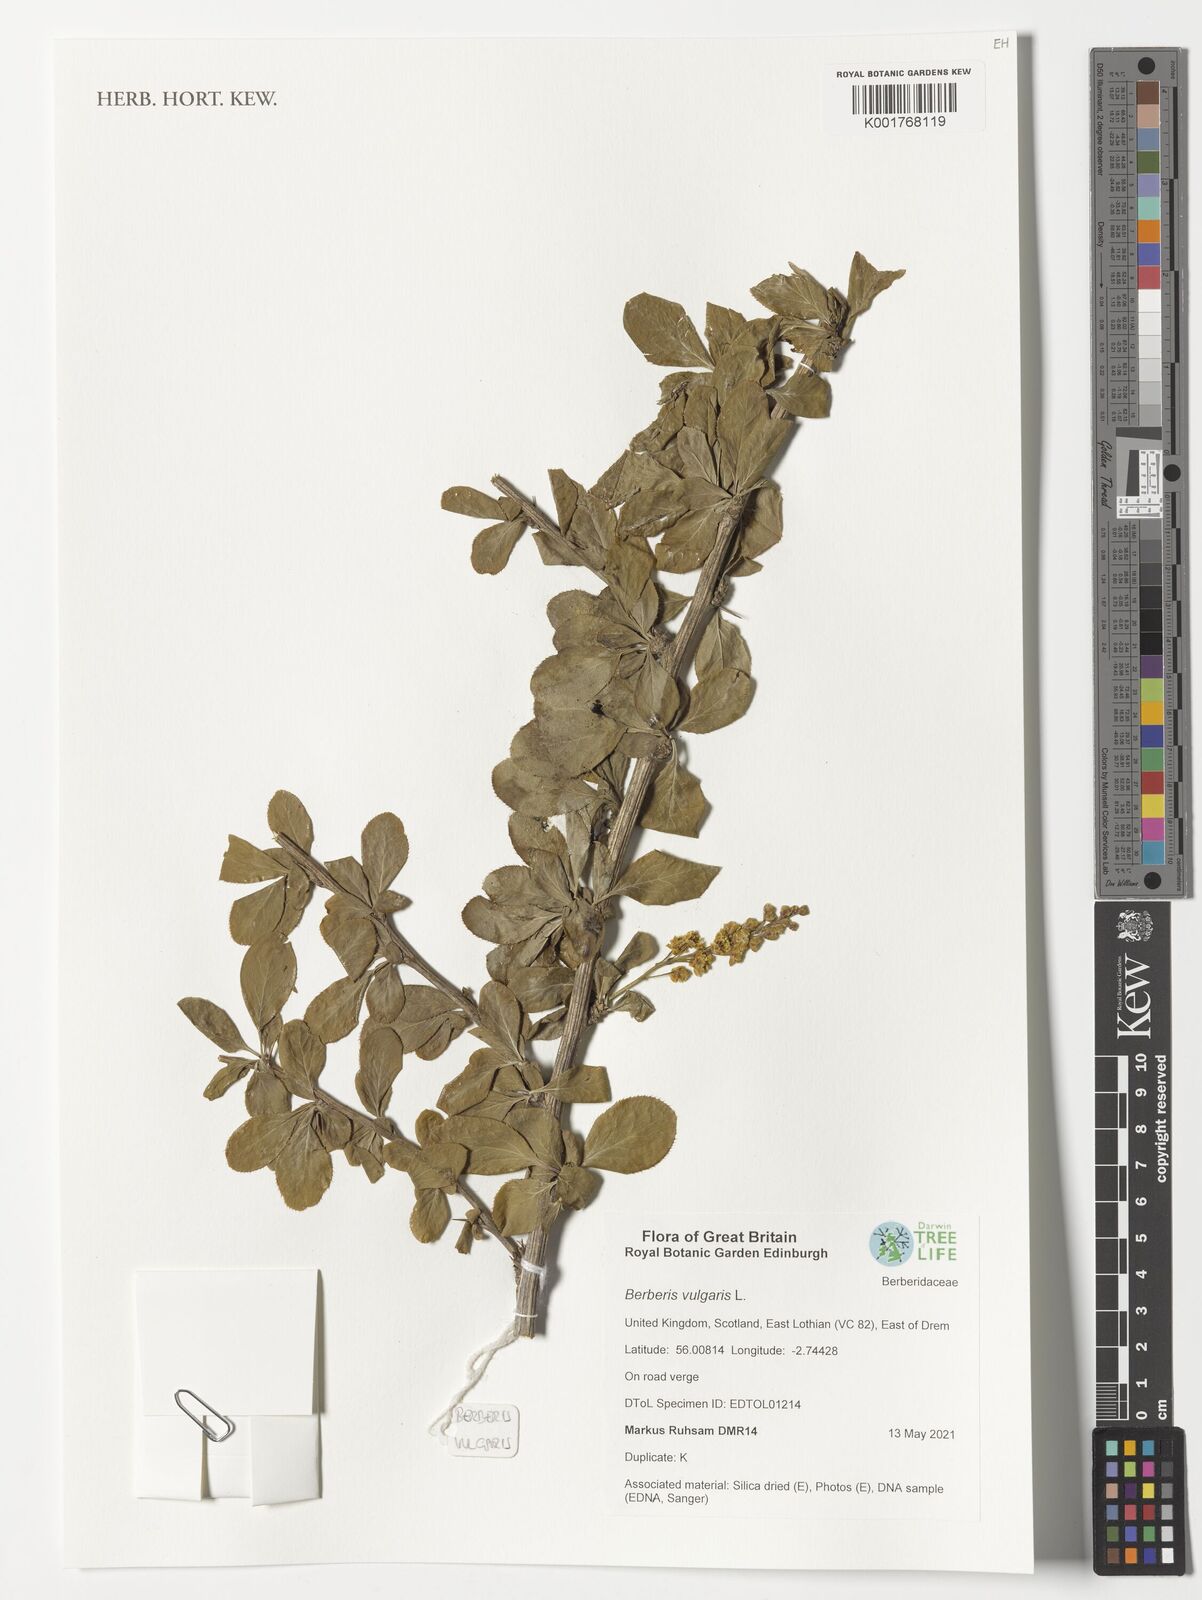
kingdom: Plantae
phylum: Tracheophyta
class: Magnoliopsida
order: Ranunculales
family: Berberidaceae
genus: Berberis
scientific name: Berberis vulgaris
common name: Barberry
